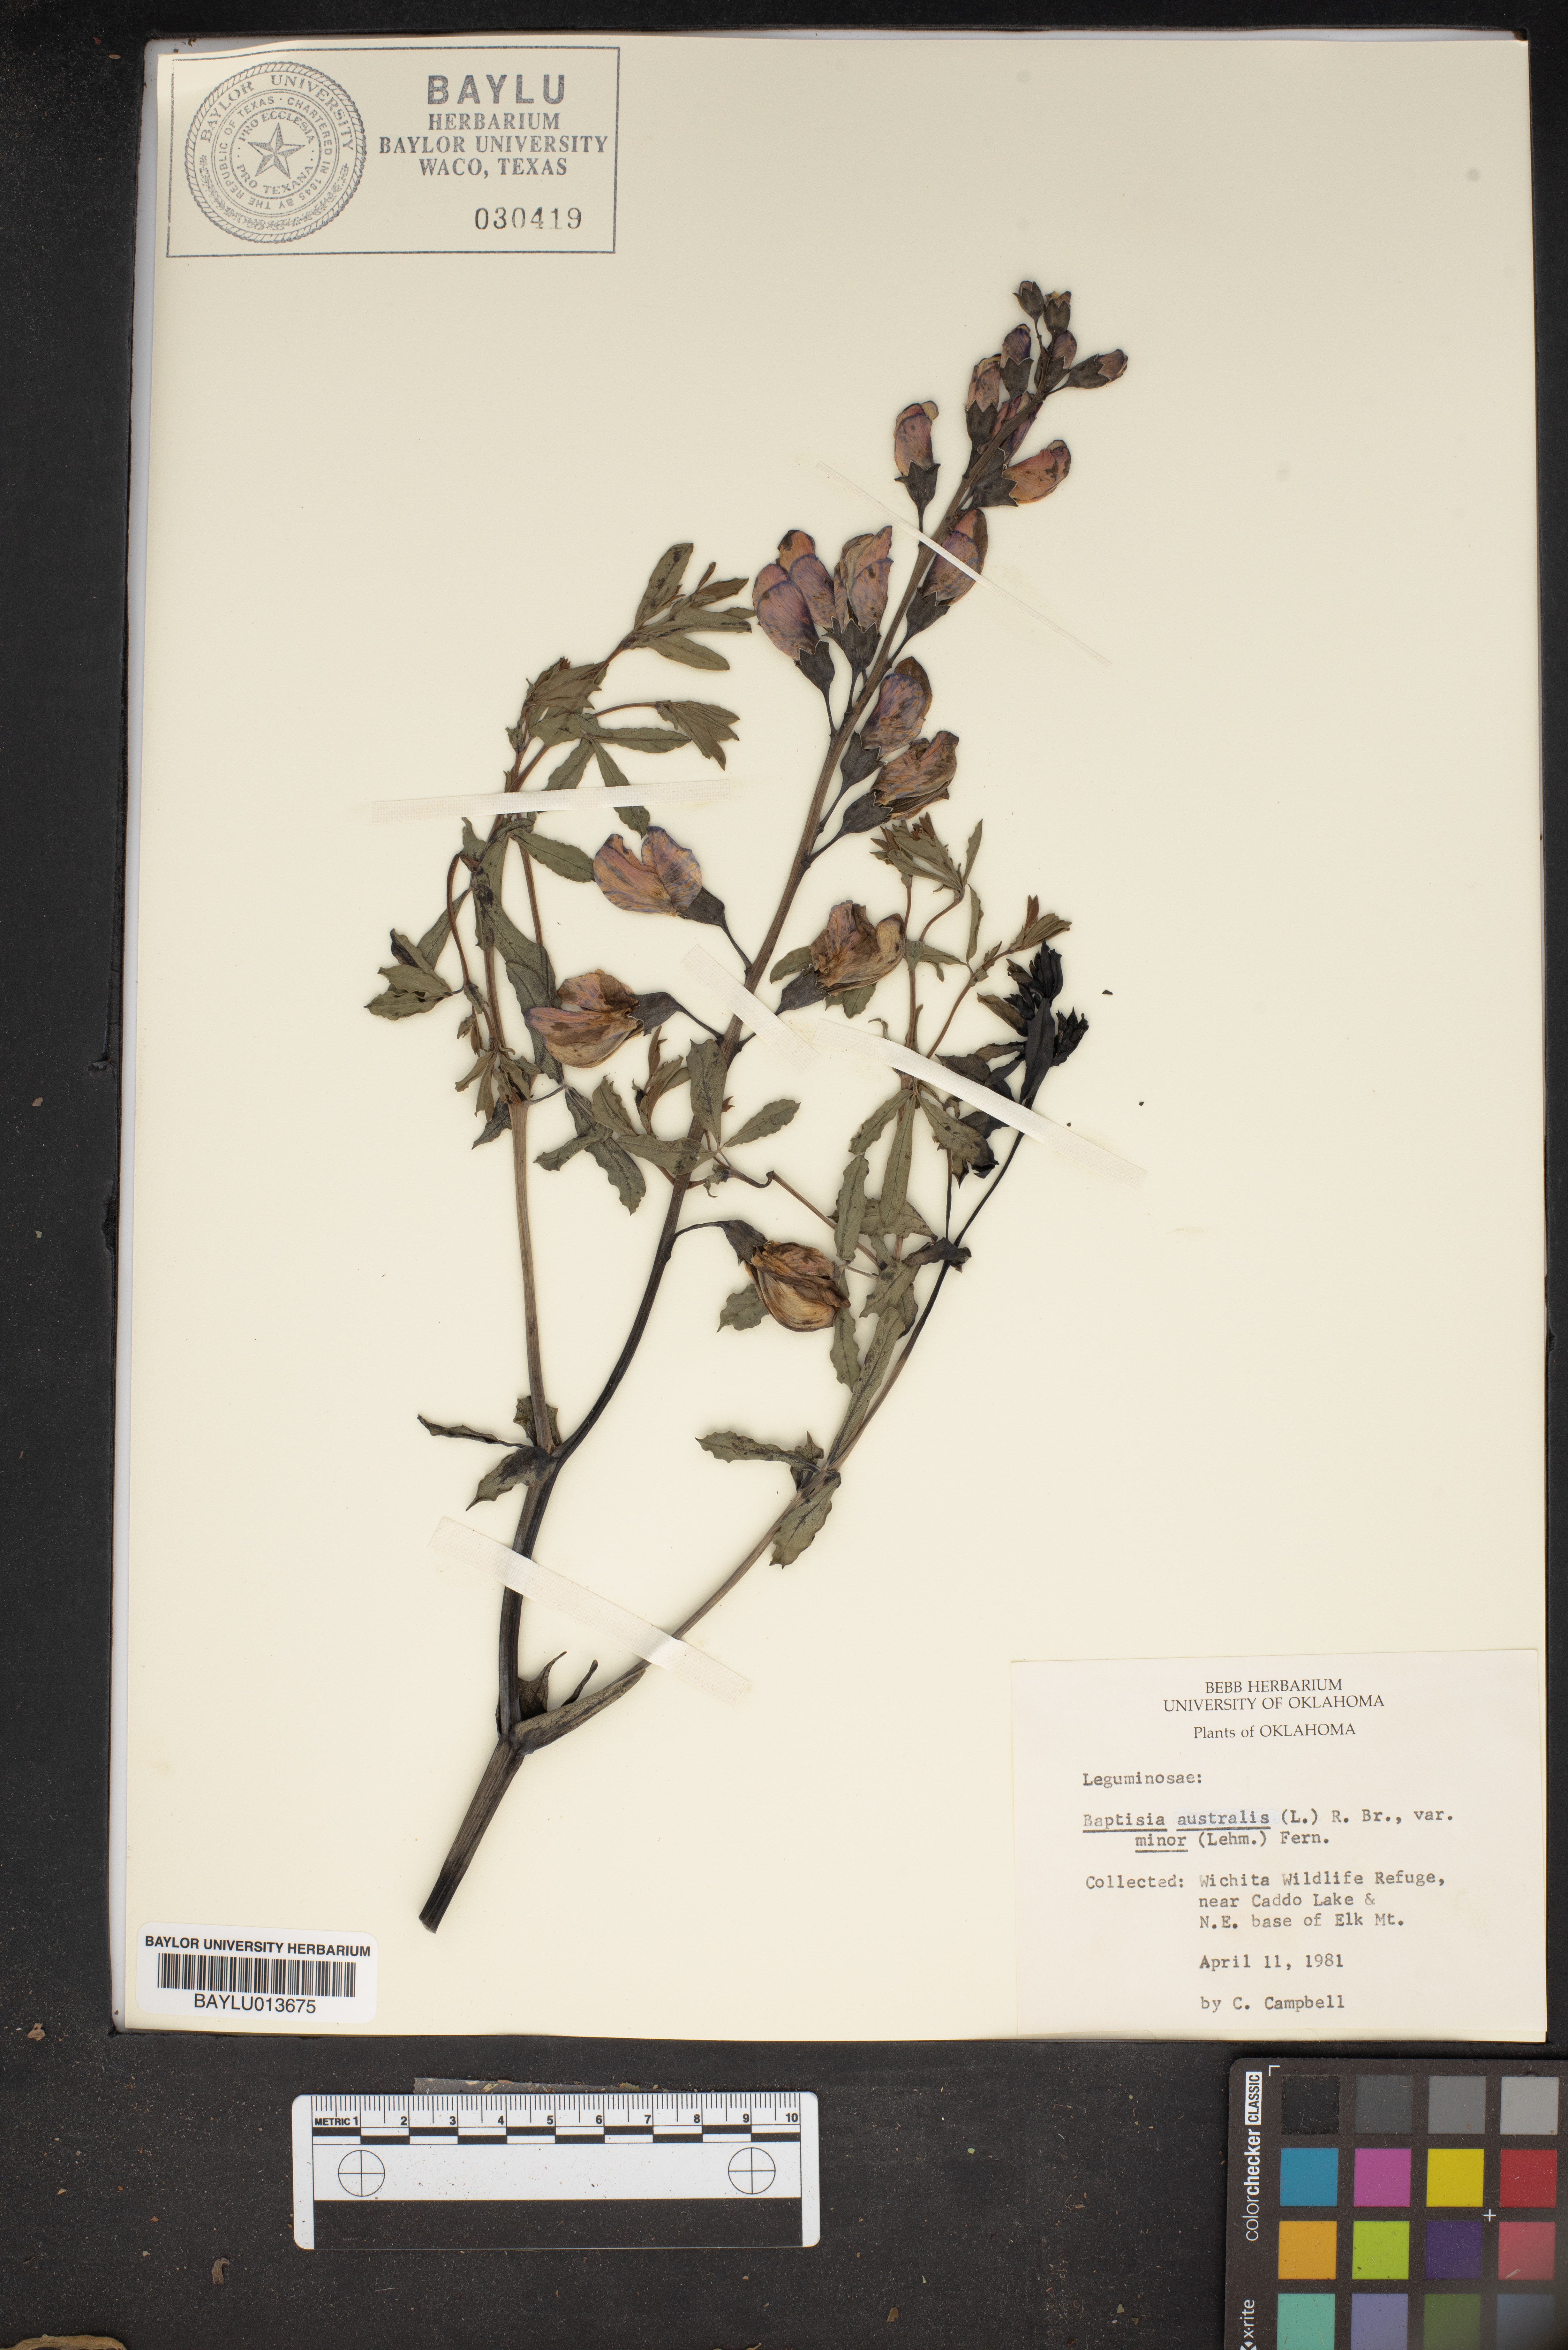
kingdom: Plantae
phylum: Tracheophyta
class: Magnoliopsida
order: Fabales
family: Fabaceae
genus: Baptisia
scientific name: Baptisia australis
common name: Blue false indigo
